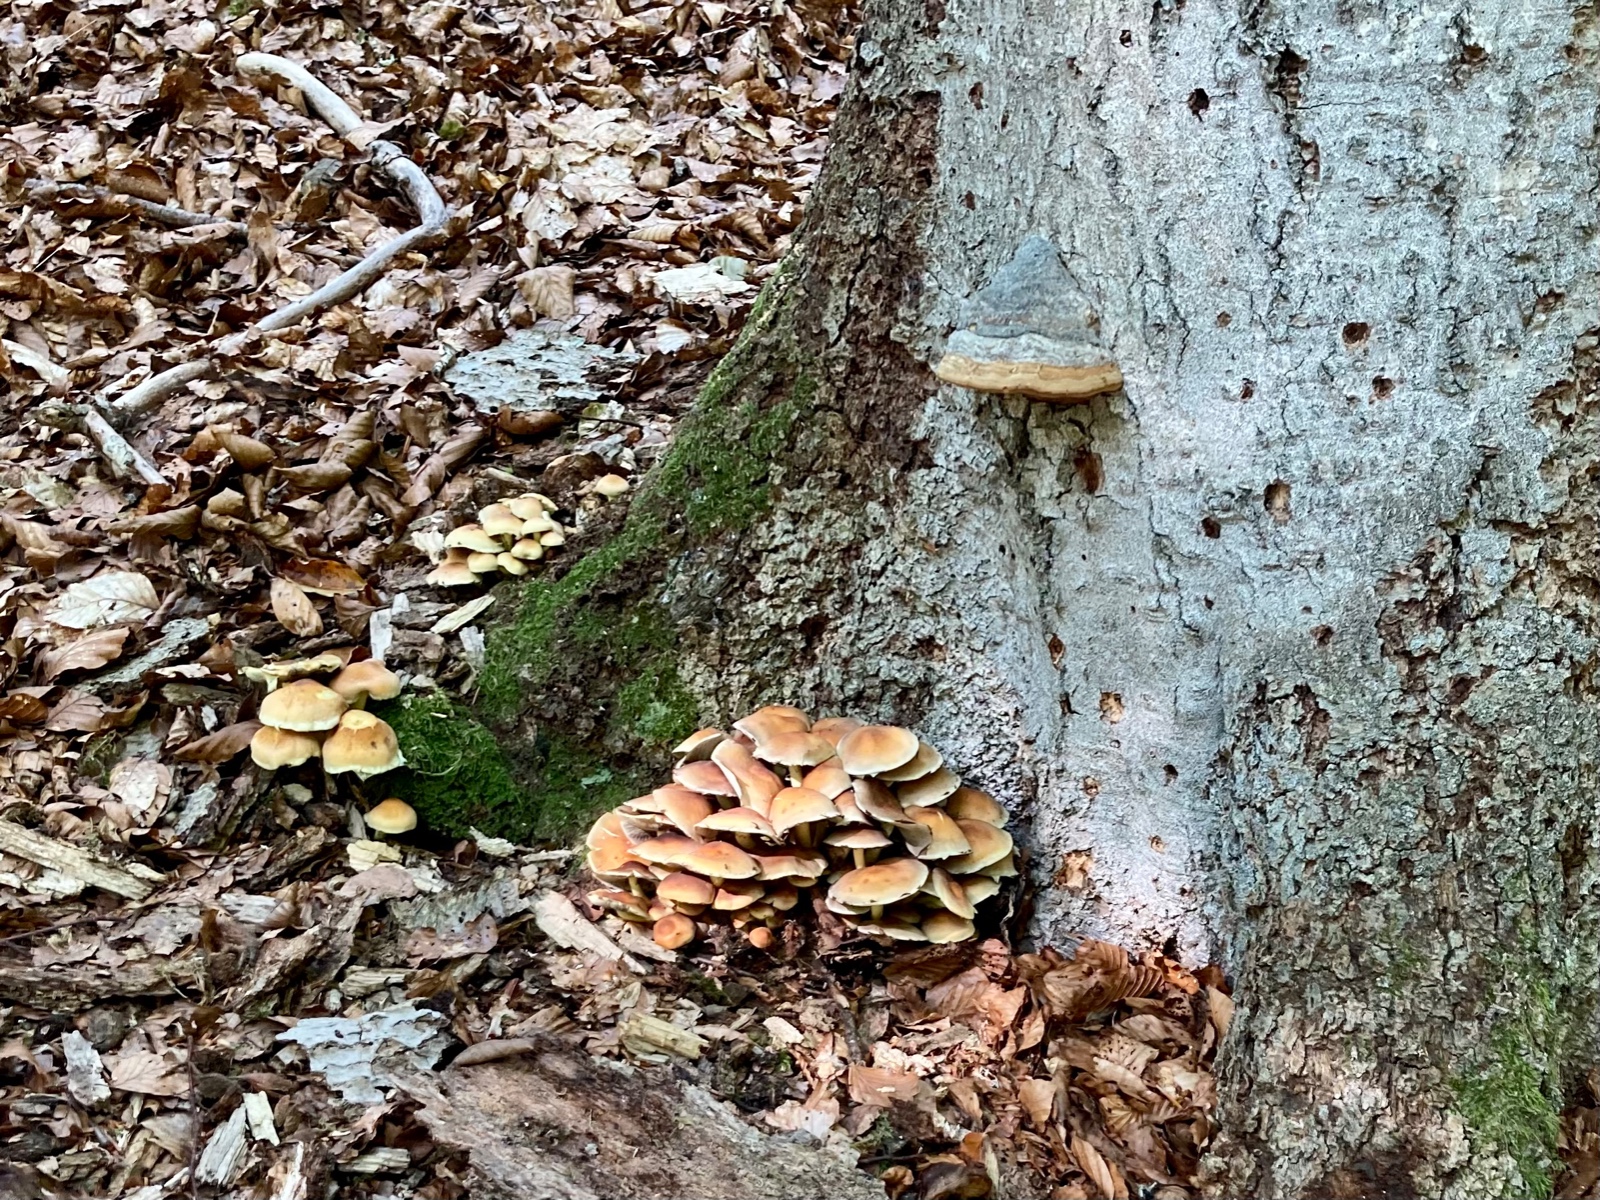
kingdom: Fungi
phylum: Basidiomycota
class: Agaricomycetes
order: Polyporales
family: Polyporaceae
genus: Fomes
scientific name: Fomes fomentarius
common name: tøndersvamp
